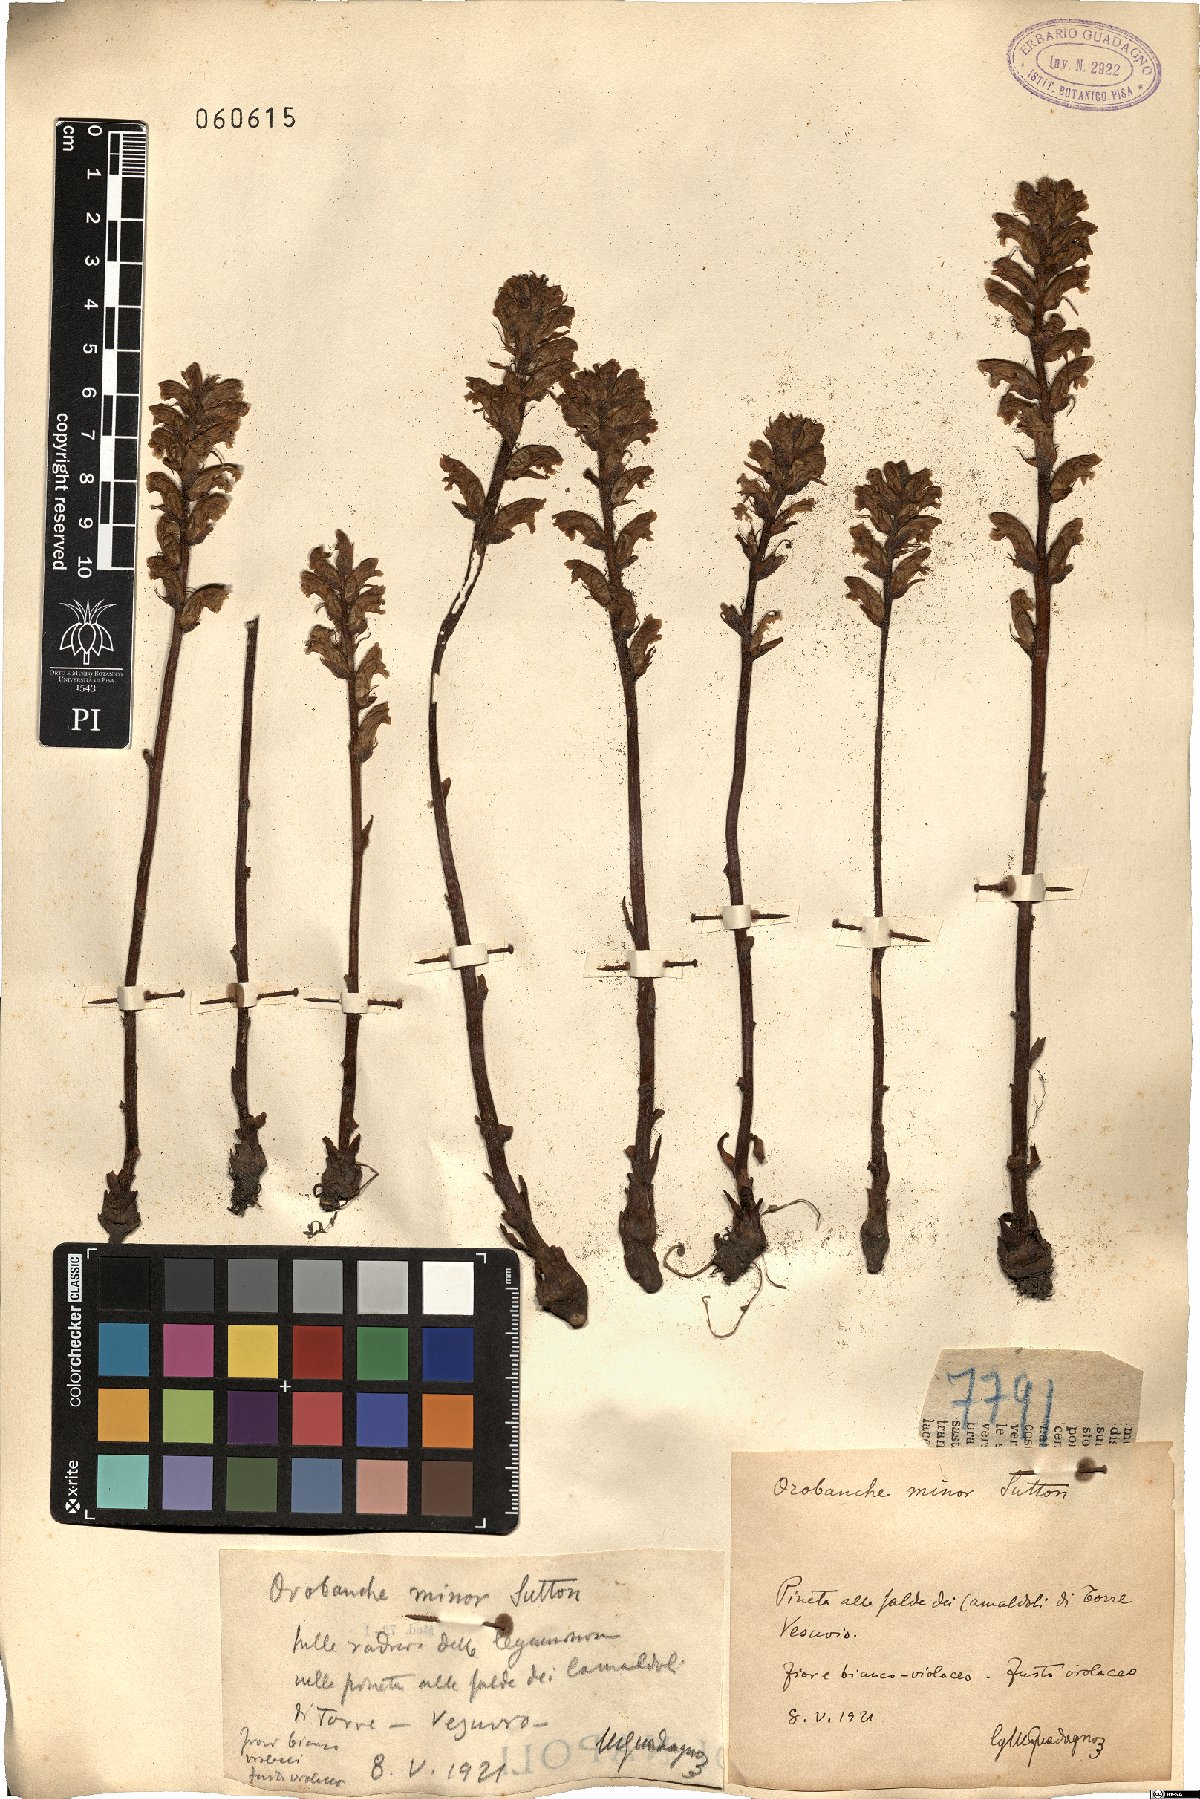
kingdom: Plantae
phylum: Tracheophyta
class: Magnoliopsida
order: Lamiales
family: Orobanchaceae
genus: Orobanche
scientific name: Orobanche minor
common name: Common broomrape
